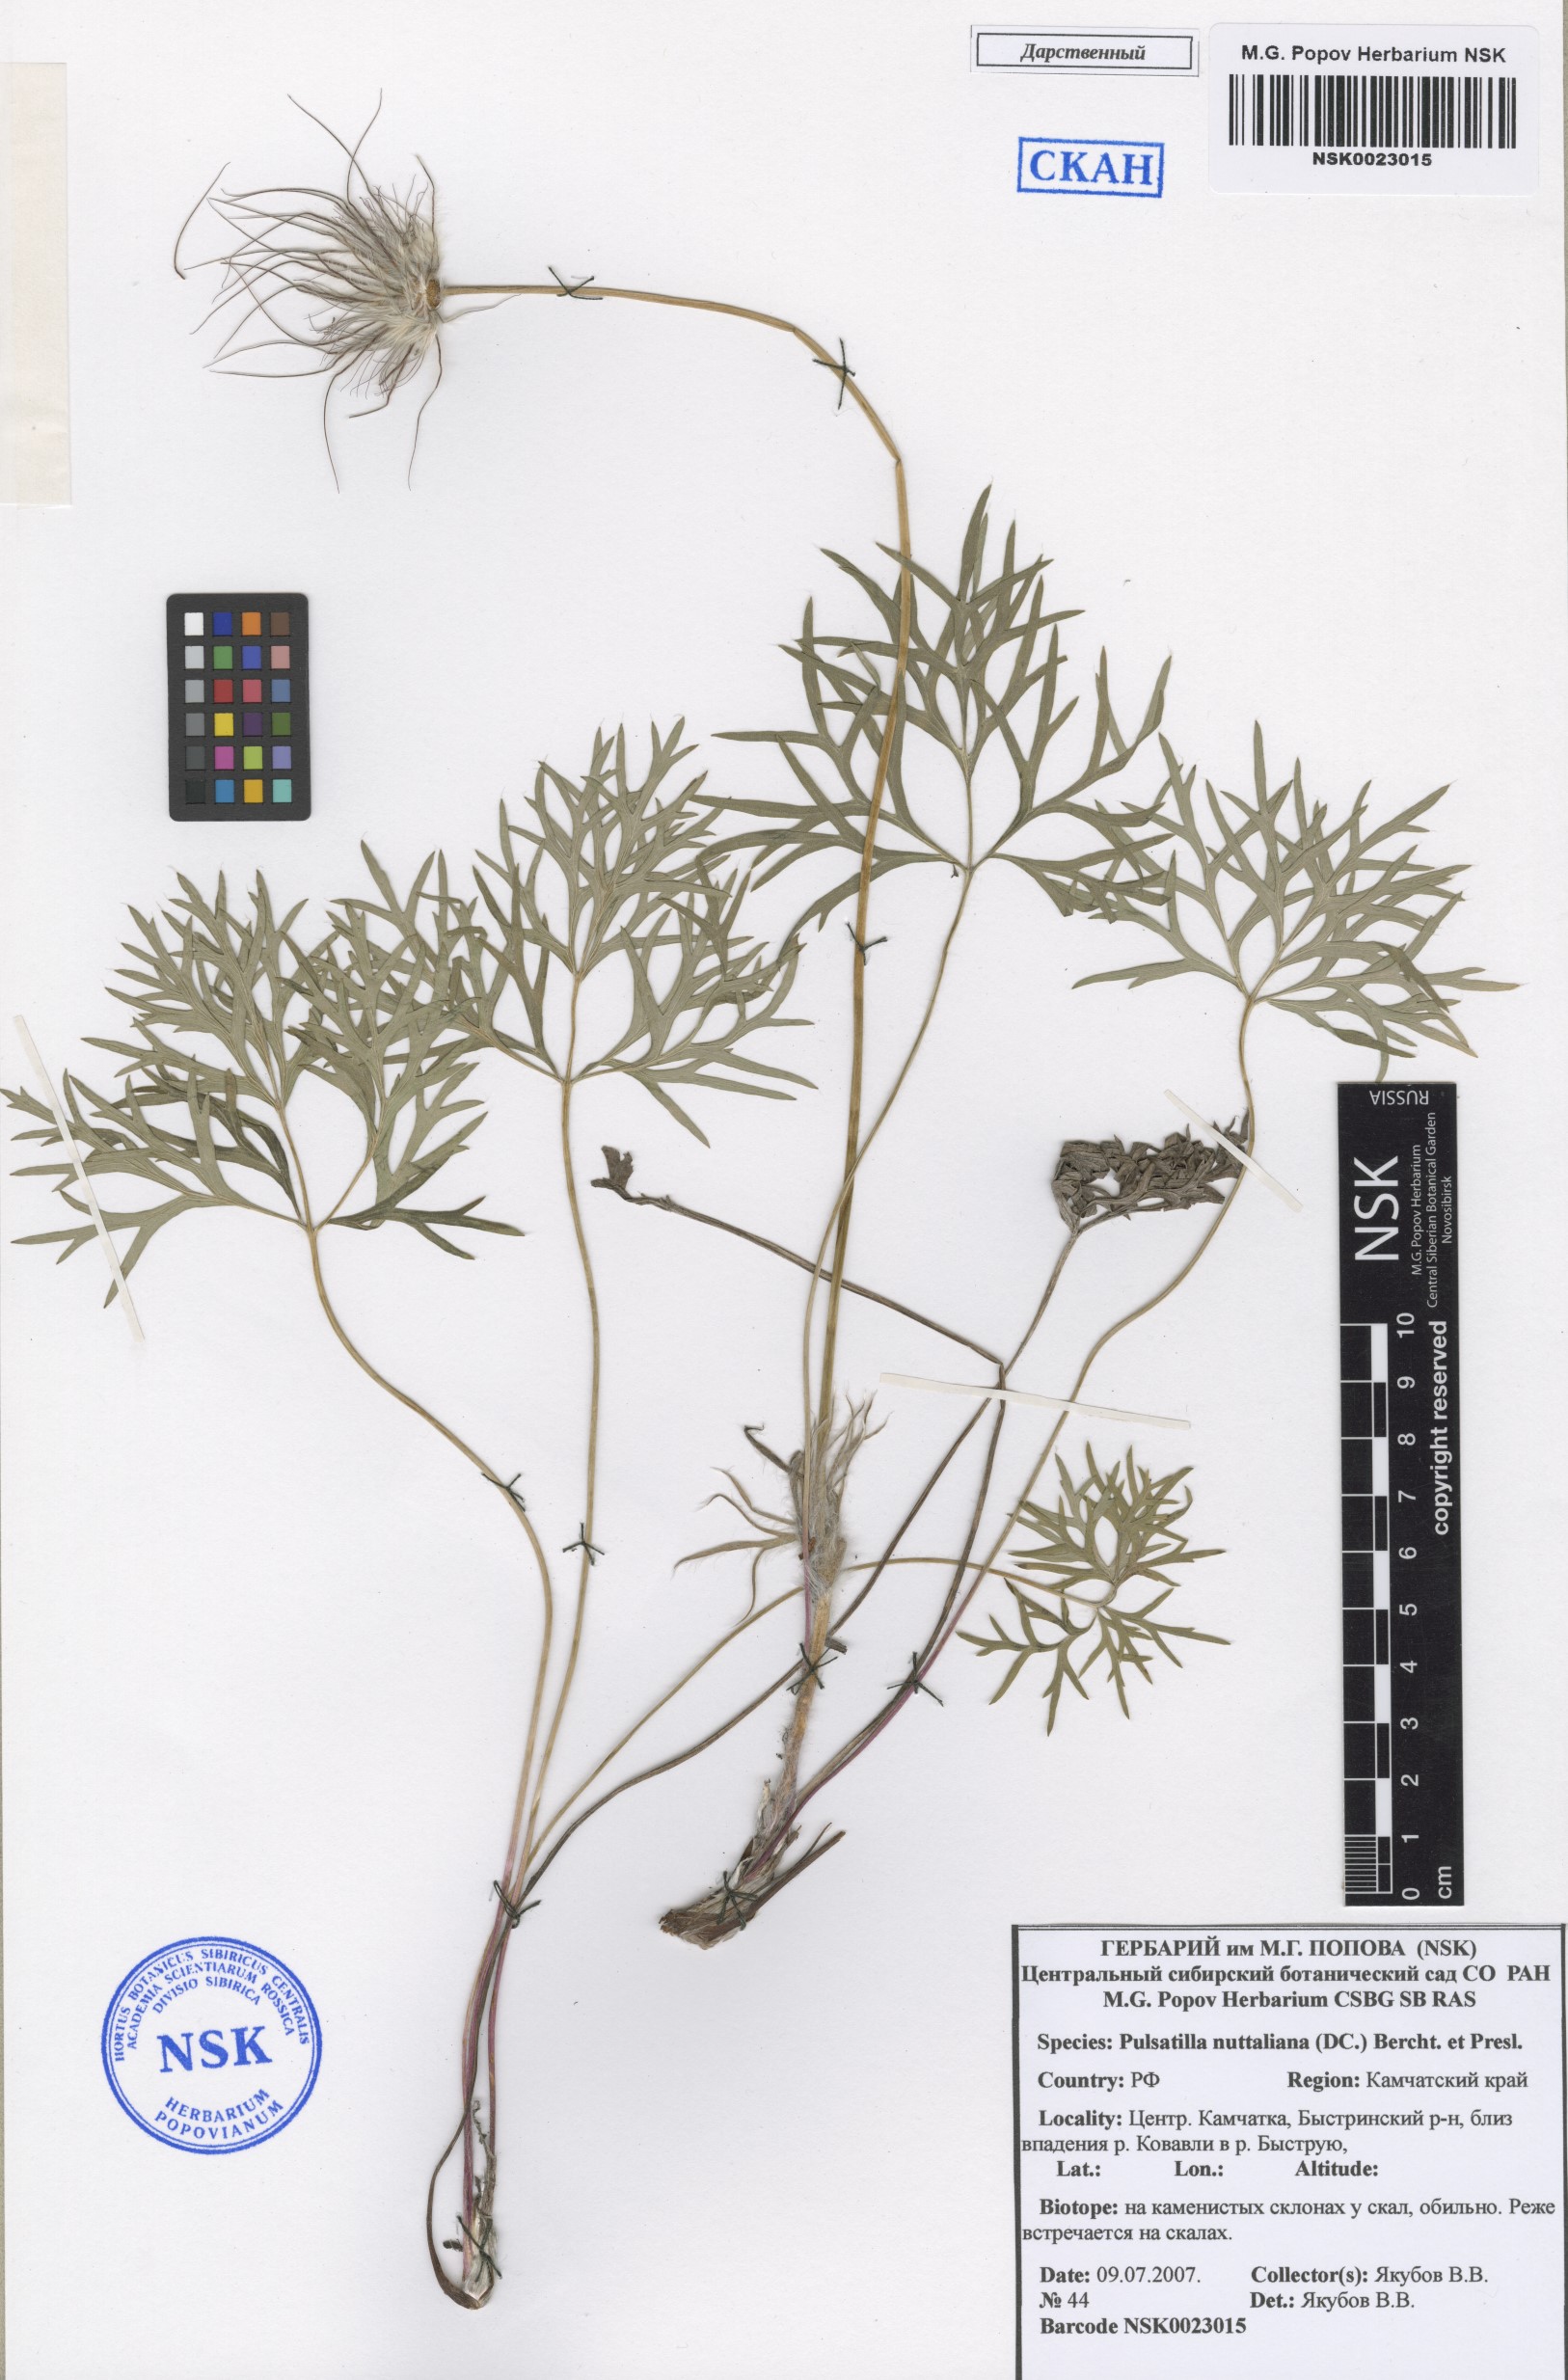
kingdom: Plantae
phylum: Tracheophyta
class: Magnoliopsida
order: Ranunculales
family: Ranunculaceae
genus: Pulsatilla
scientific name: Pulsatilla nuttalliana
